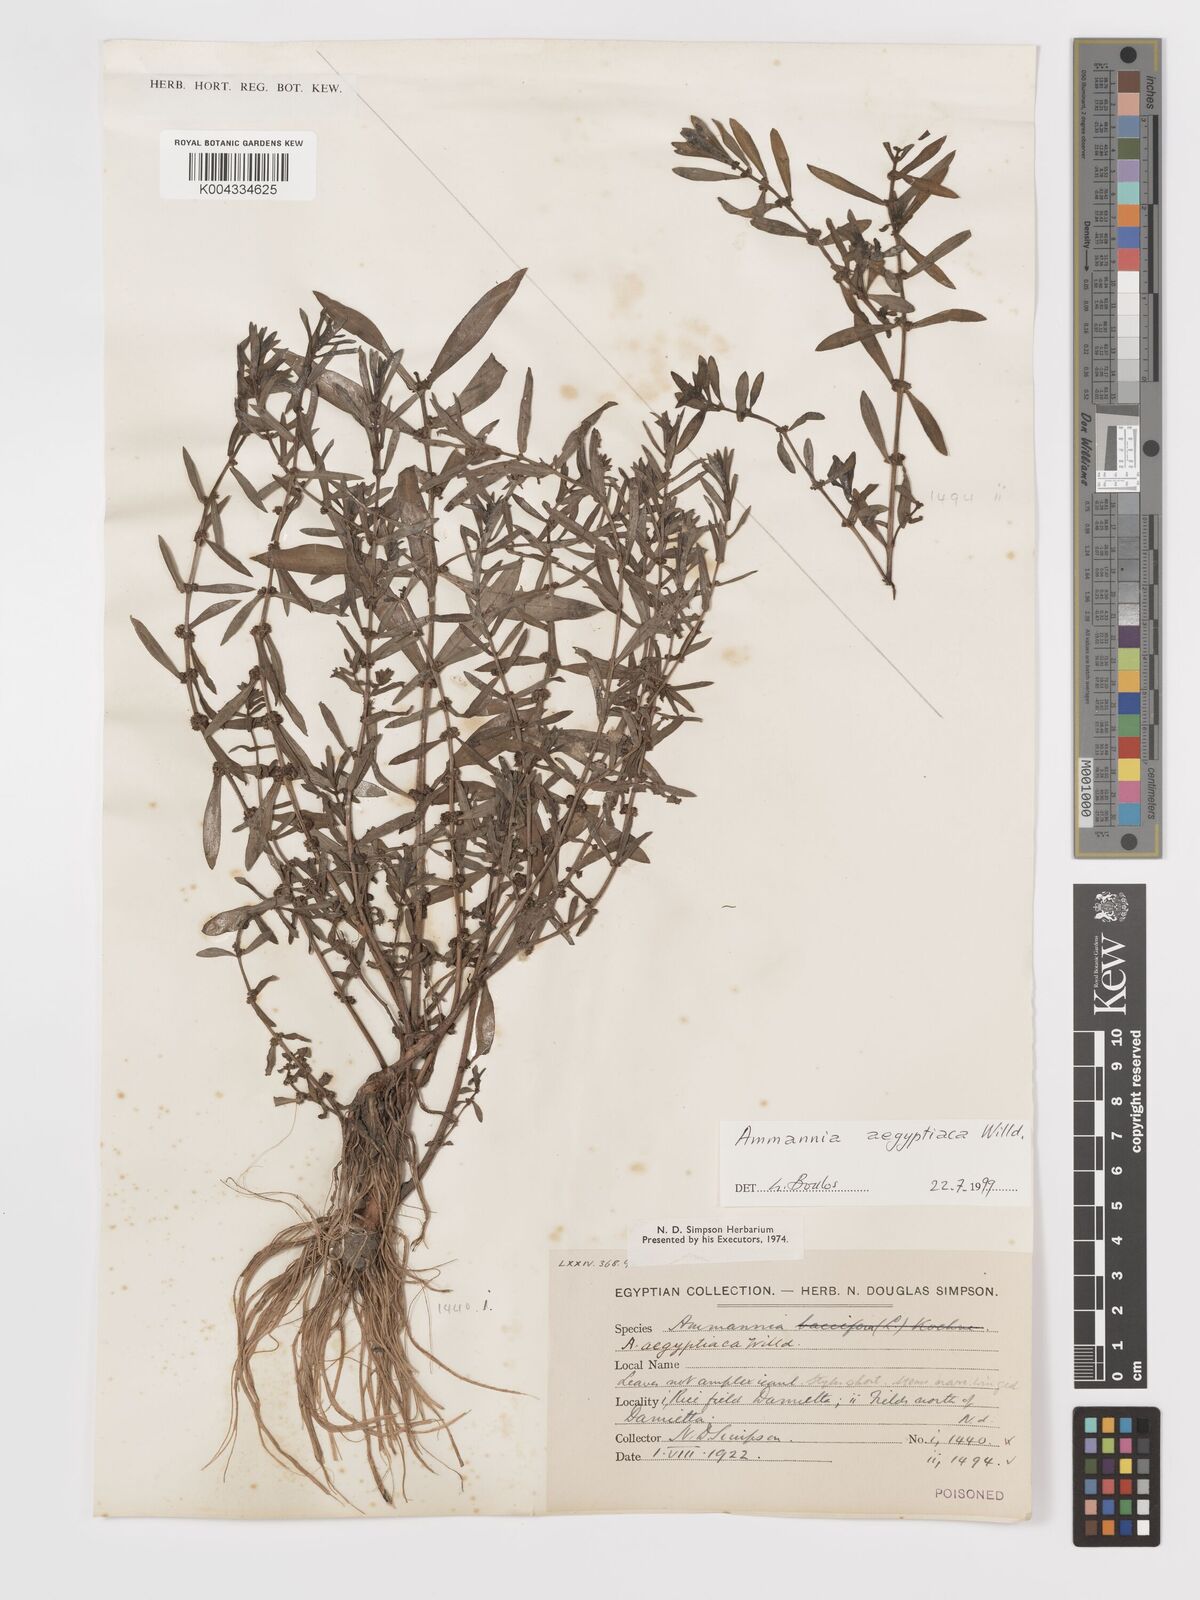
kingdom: Plantae
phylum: Tracheophyta
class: Magnoliopsida
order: Myrtales
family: Lythraceae
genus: Ammannia
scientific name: Ammannia
